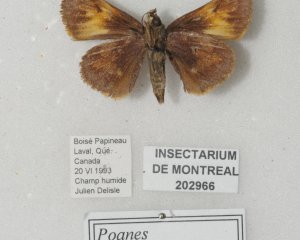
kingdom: Animalia
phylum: Arthropoda
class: Insecta
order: Lepidoptera
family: Hesperiidae
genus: Lon
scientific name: Lon hobomok
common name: Hobomok Skipper
